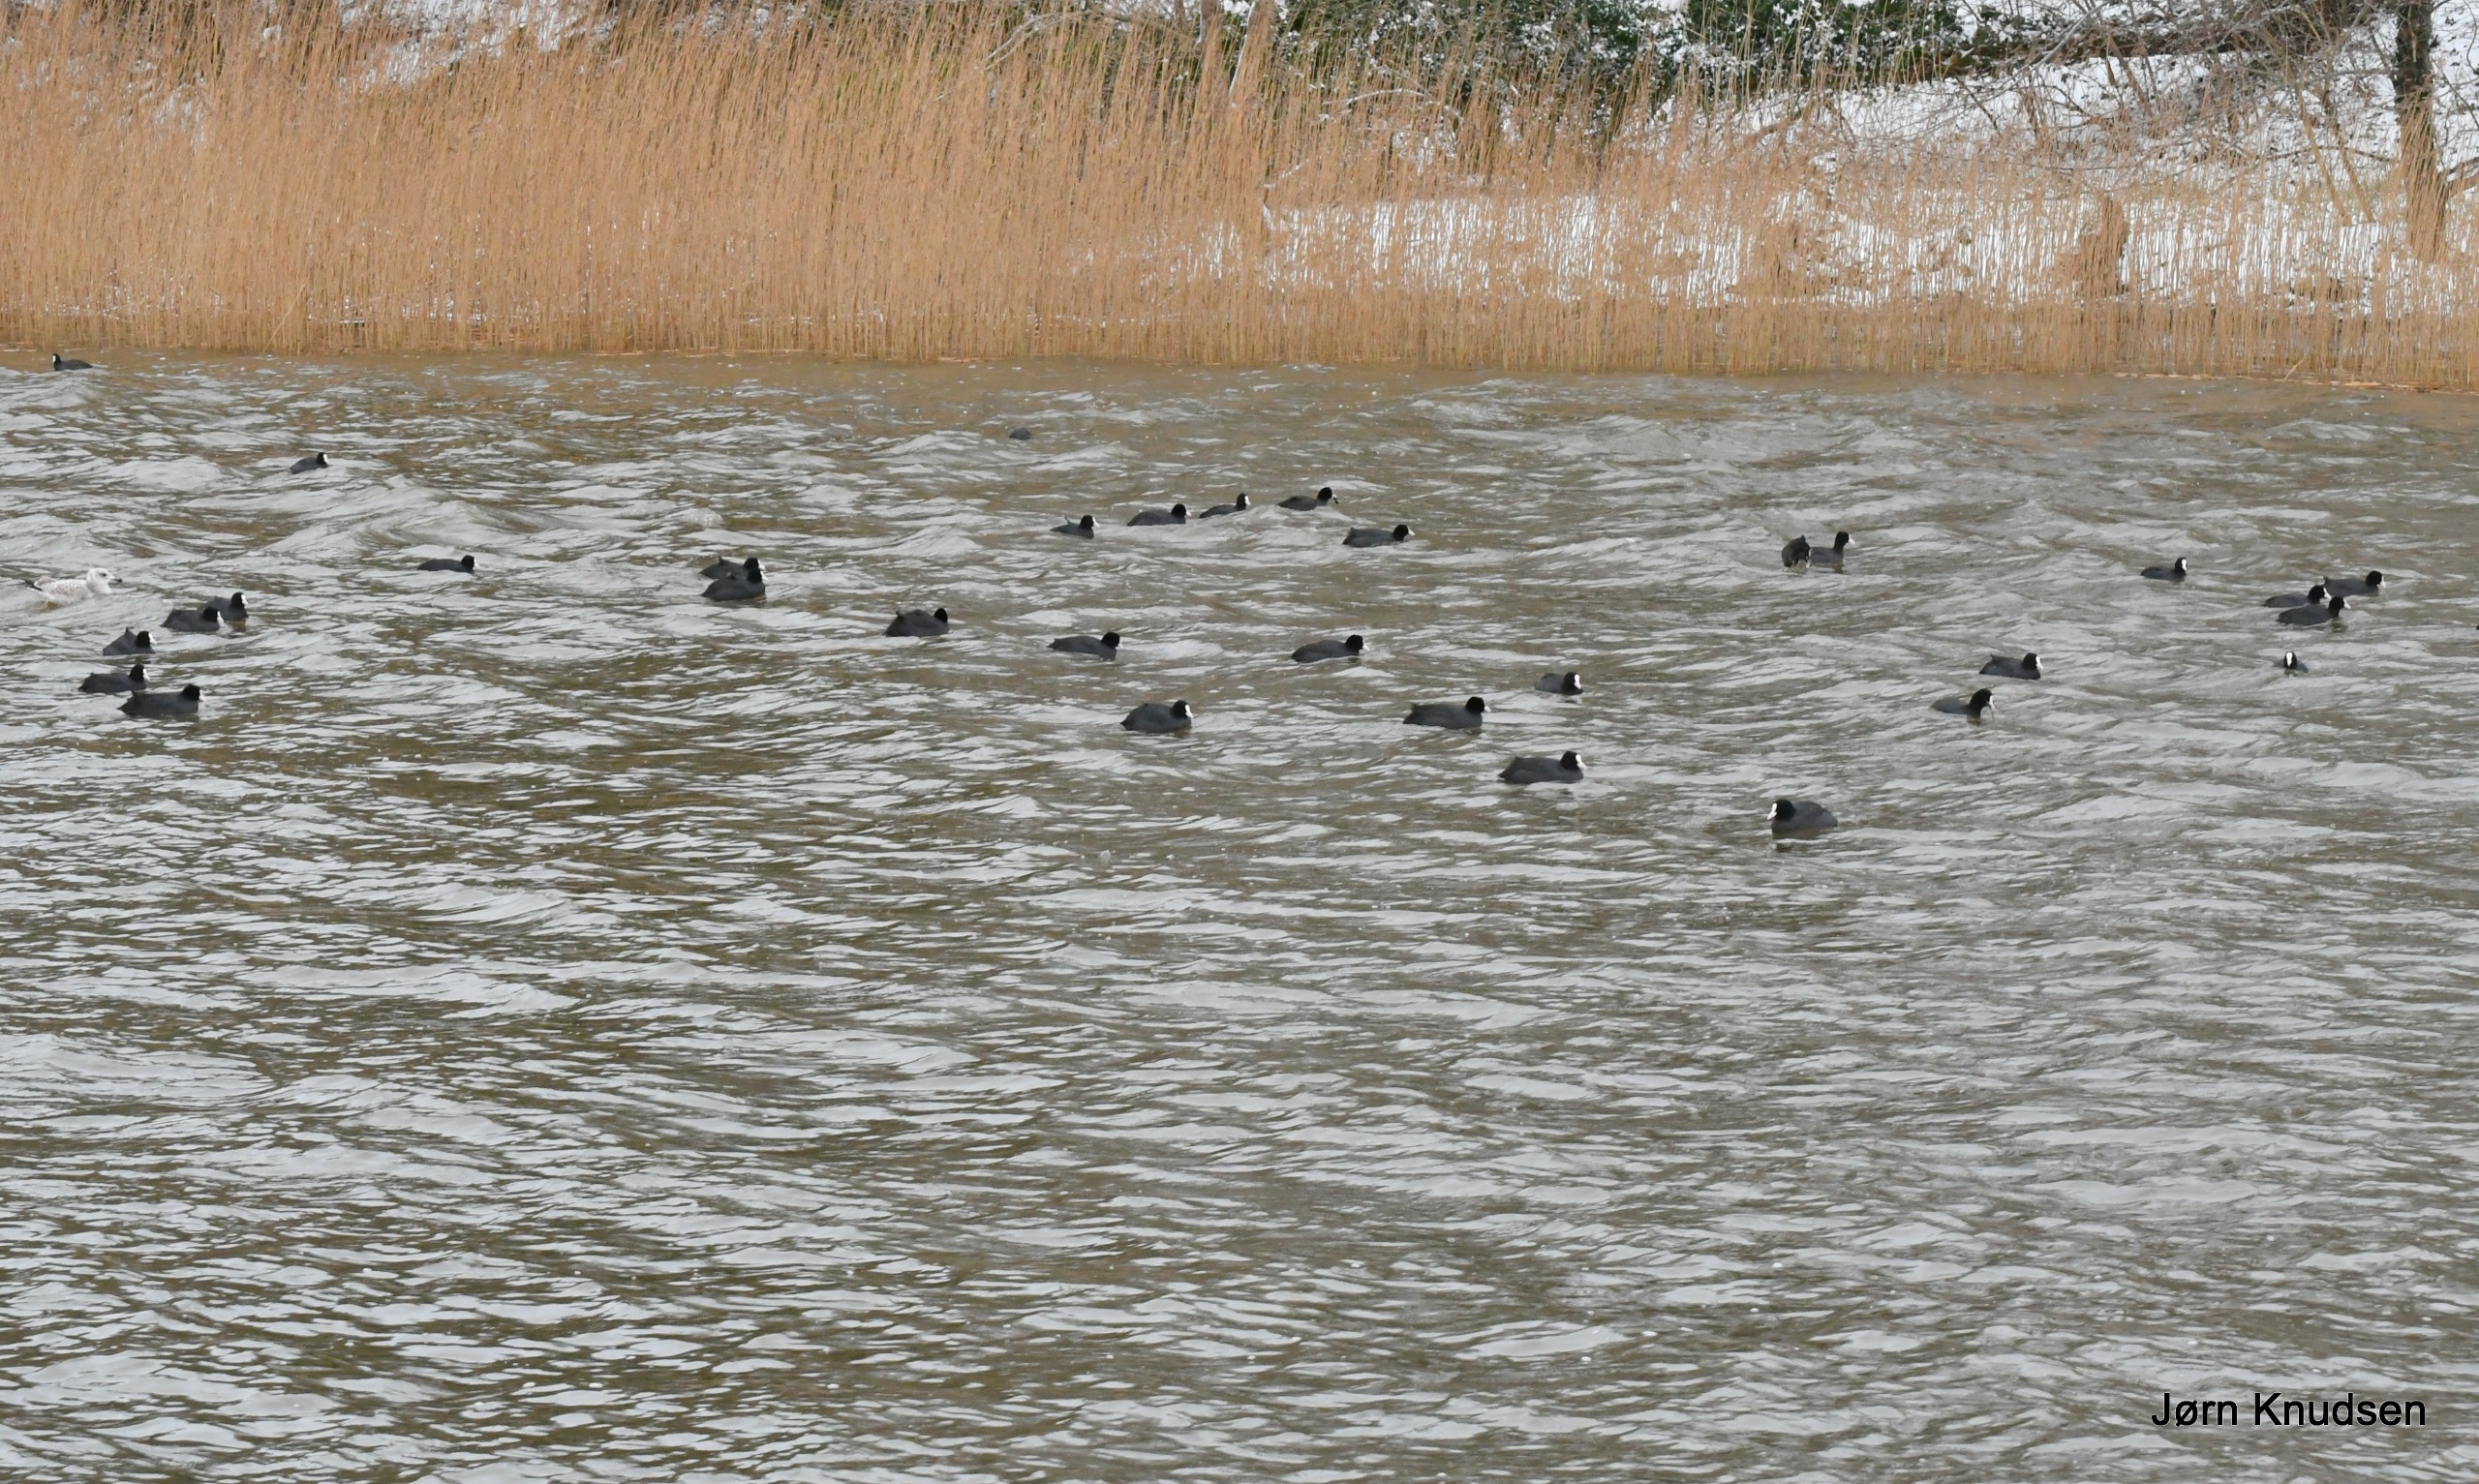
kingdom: Animalia
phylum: Chordata
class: Aves
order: Gruiformes
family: Rallidae
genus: Fulica
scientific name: Fulica atra
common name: Blishøne
